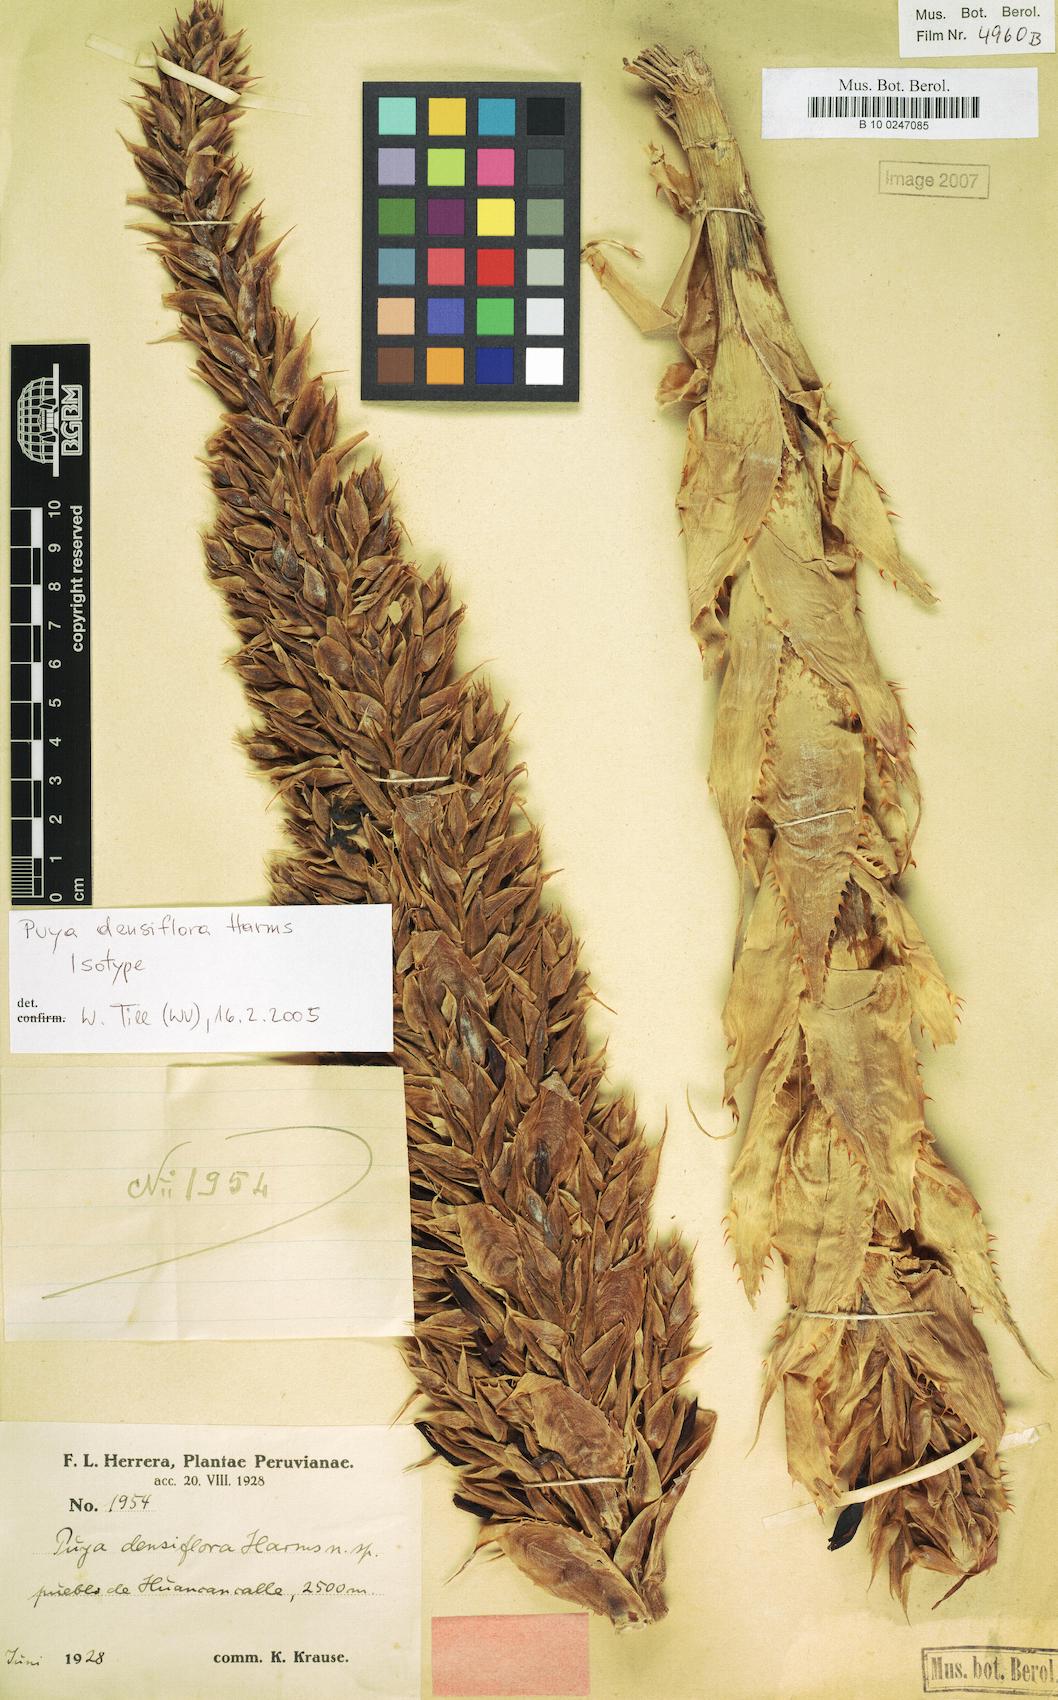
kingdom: Plantae
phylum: Tracheophyta
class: Liliopsida
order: Poales
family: Bromeliaceae
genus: Puya
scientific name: Puya densiflora
